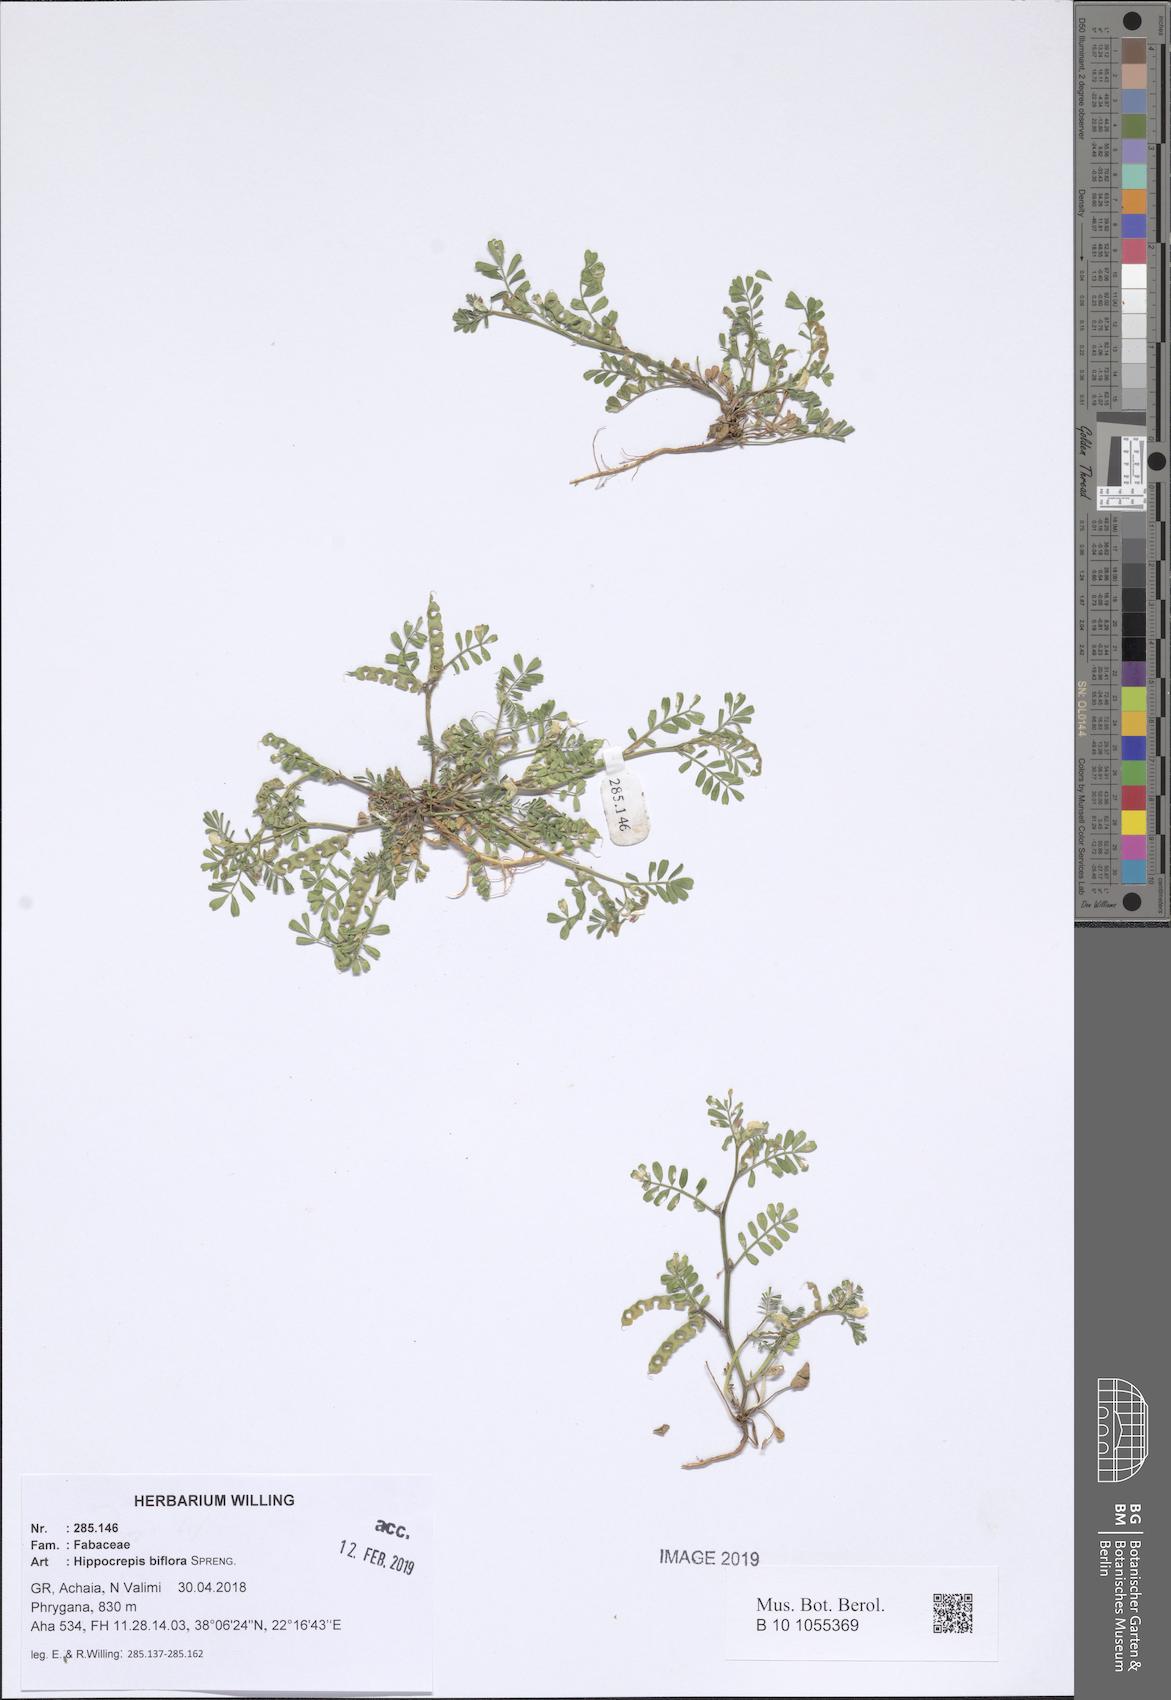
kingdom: Plantae
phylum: Tracheophyta
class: Magnoliopsida
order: Fabales
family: Fabaceae
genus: Hippocrepis
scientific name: Hippocrepis biflora
